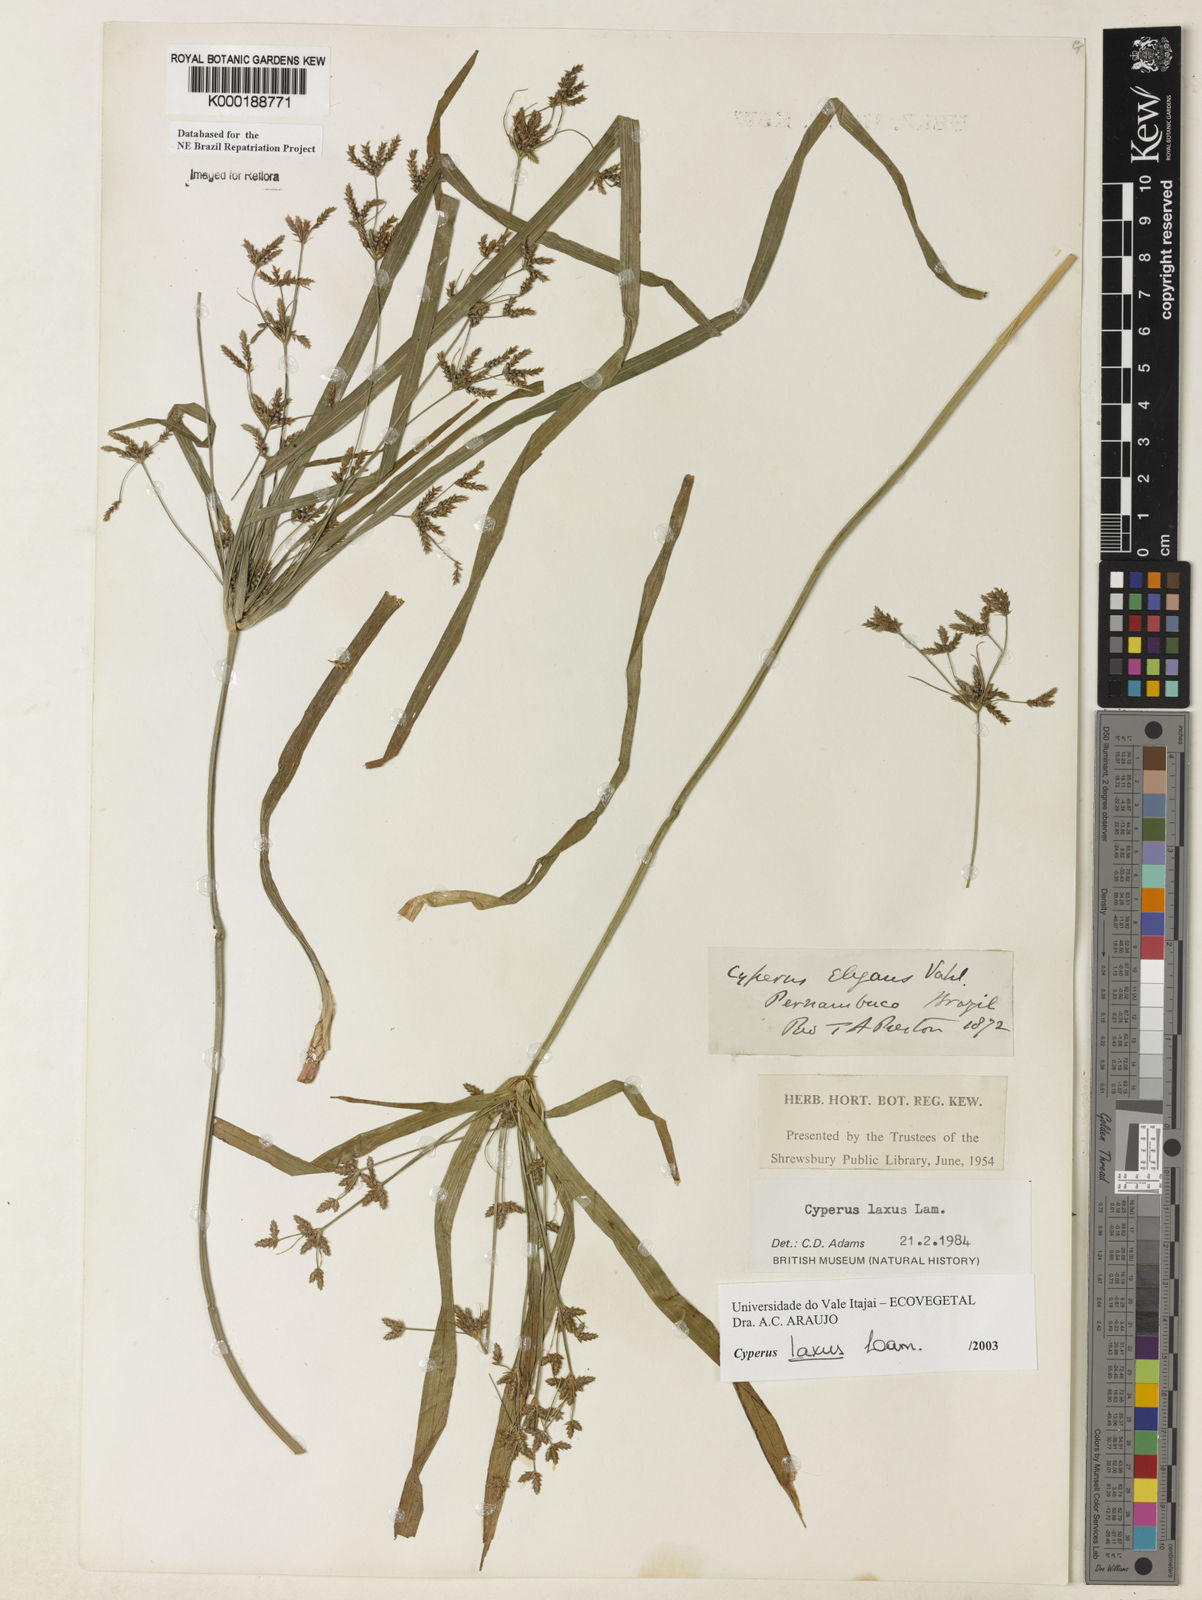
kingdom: Plantae
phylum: Tracheophyta
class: Liliopsida
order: Poales
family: Cyperaceae
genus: Cyperus
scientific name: Cyperus
